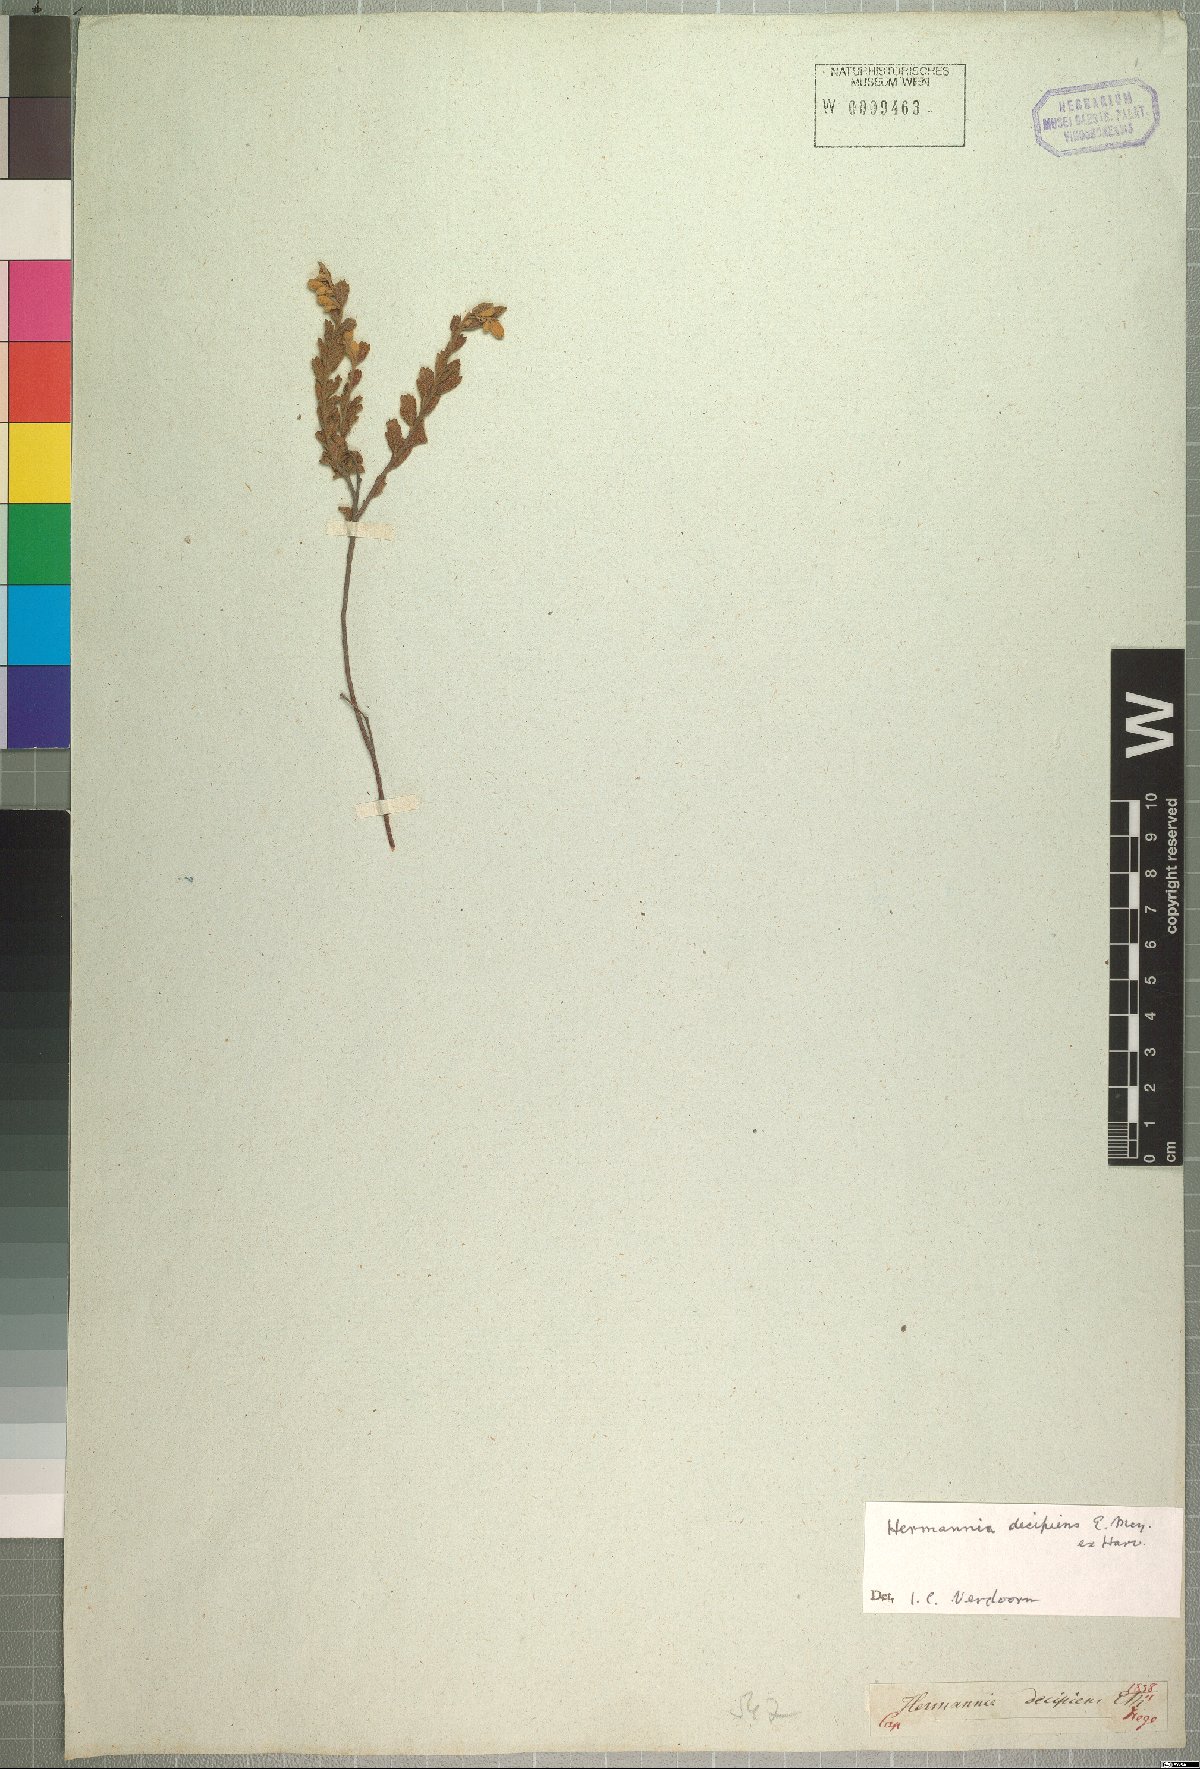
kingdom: Plantae
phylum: Tracheophyta
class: Magnoliopsida
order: Malvales
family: Malvaceae
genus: Hermannia
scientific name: Hermannia decipiens
